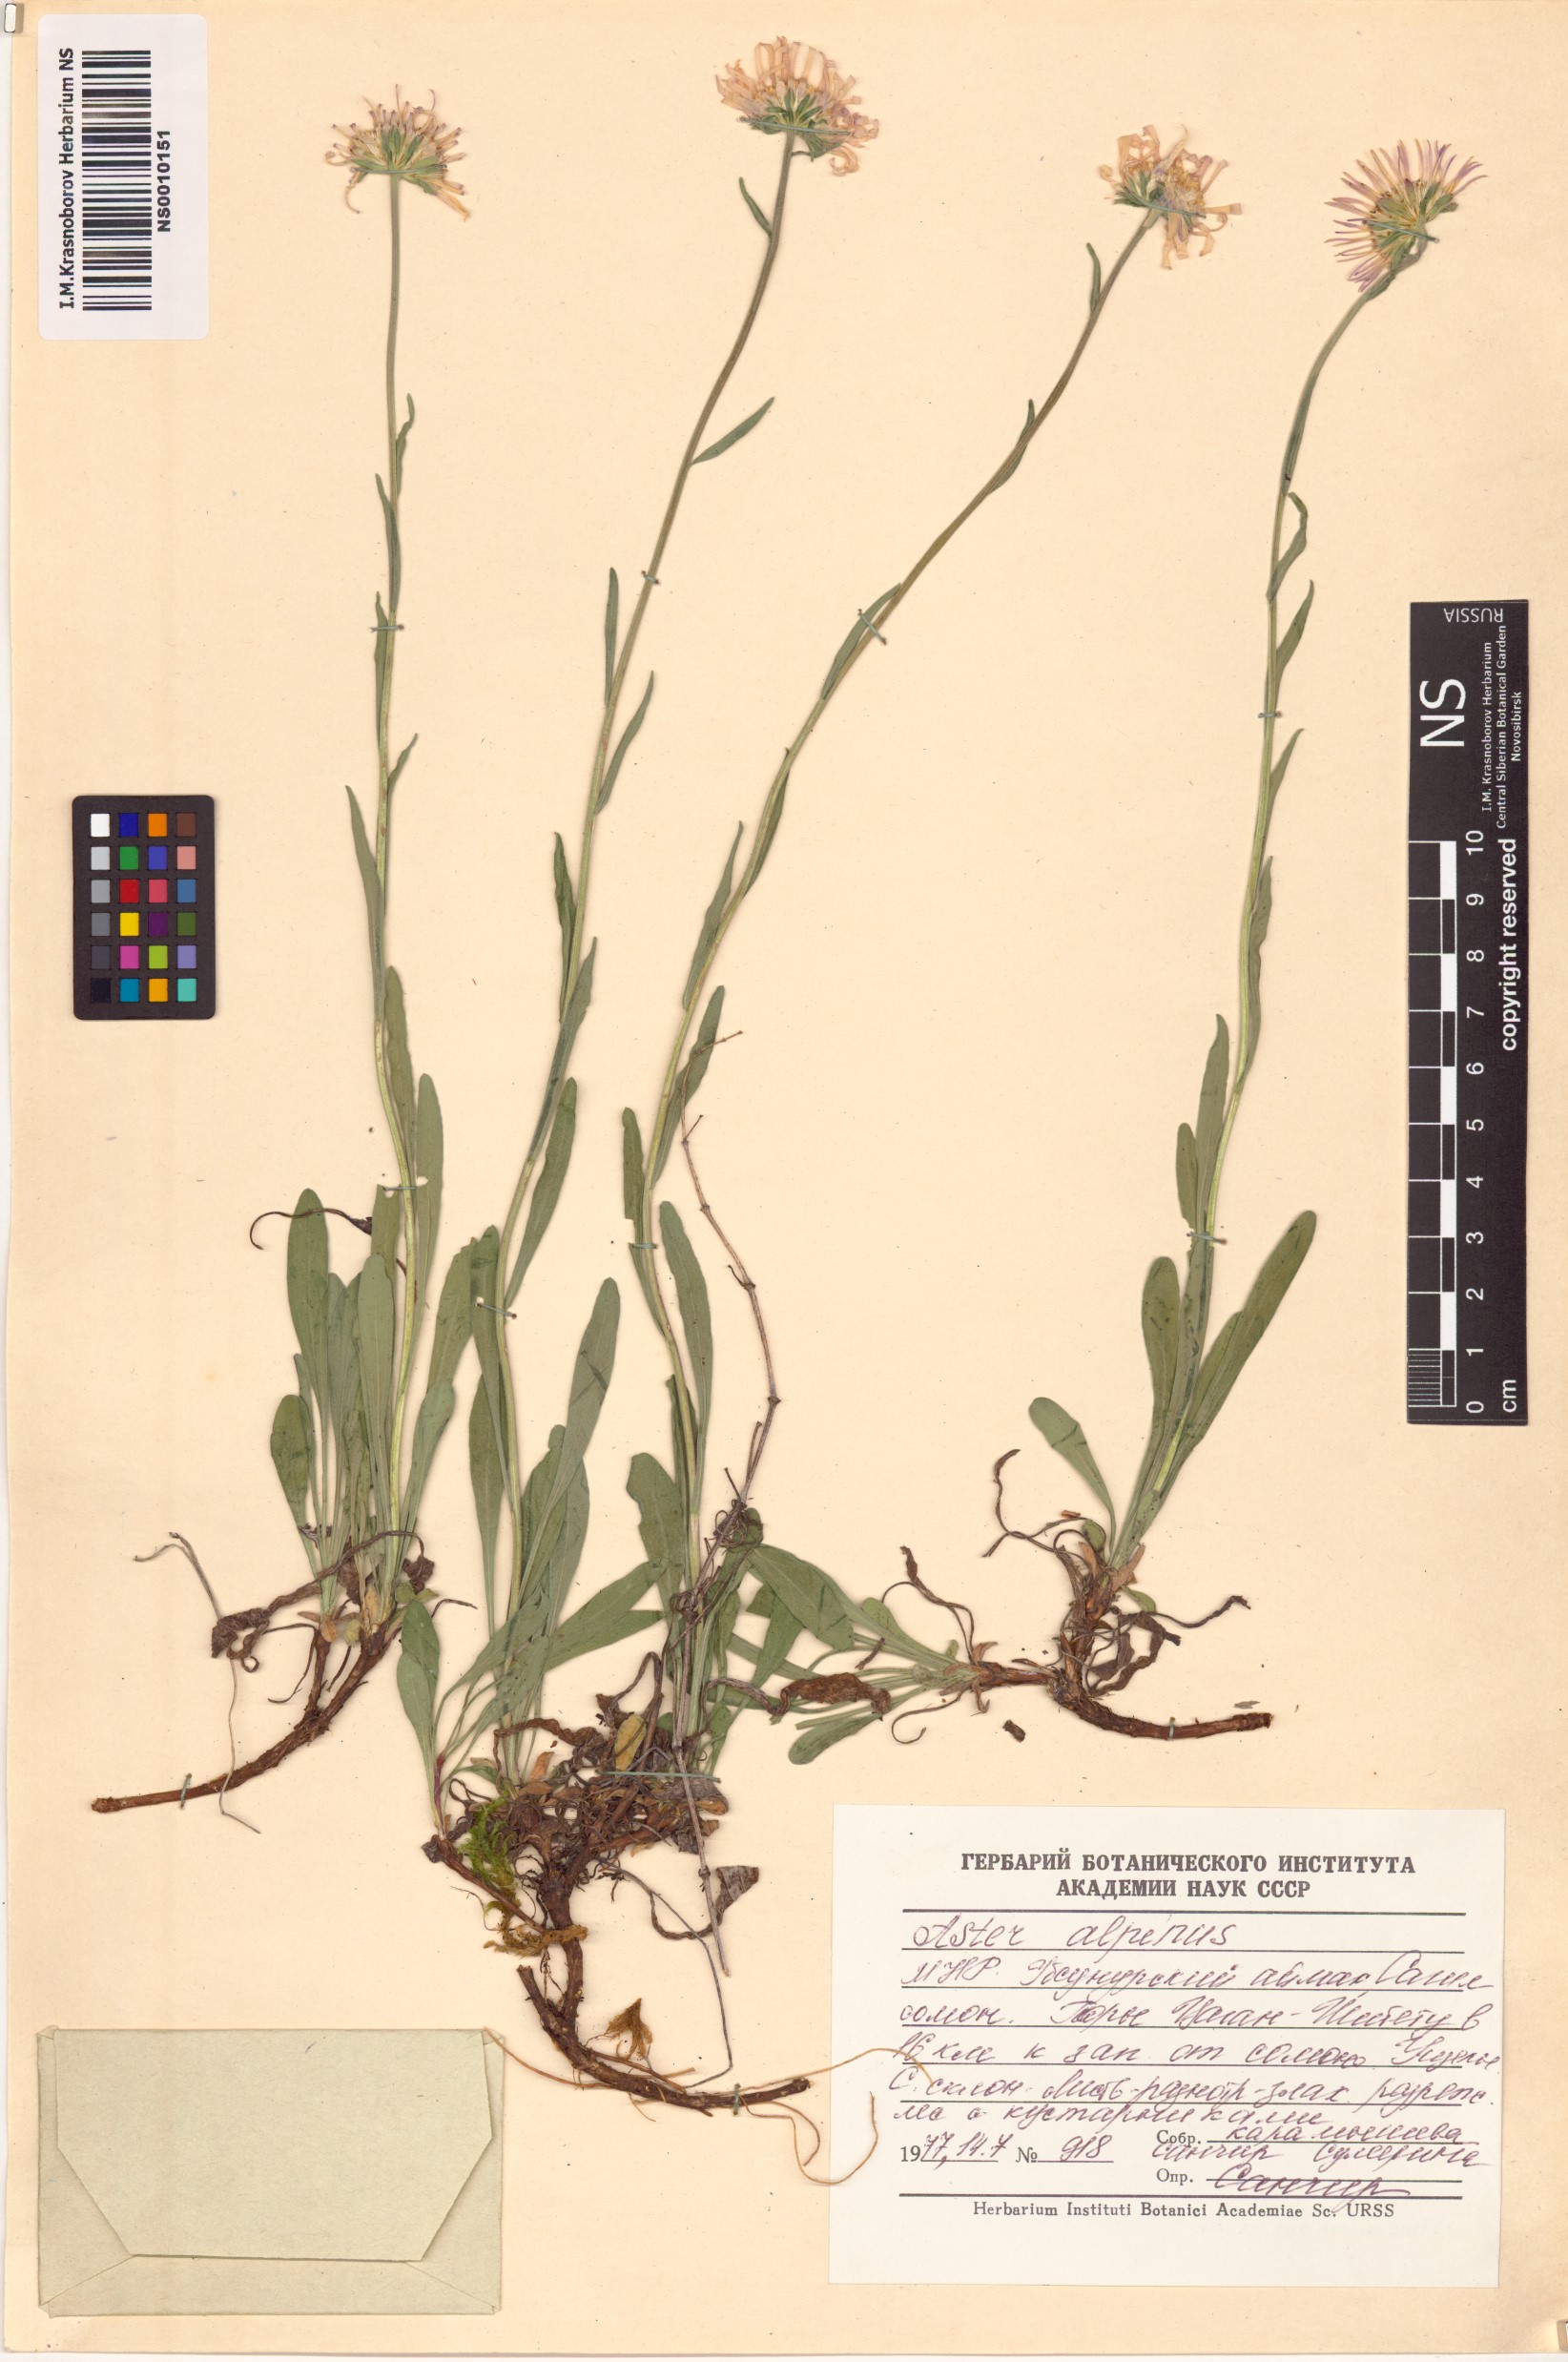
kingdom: Plantae
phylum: Tracheophyta
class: Magnoliopsida
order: Asterales
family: Asteraceae
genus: Aster
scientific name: Aster alpinus
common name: Alpine aster
